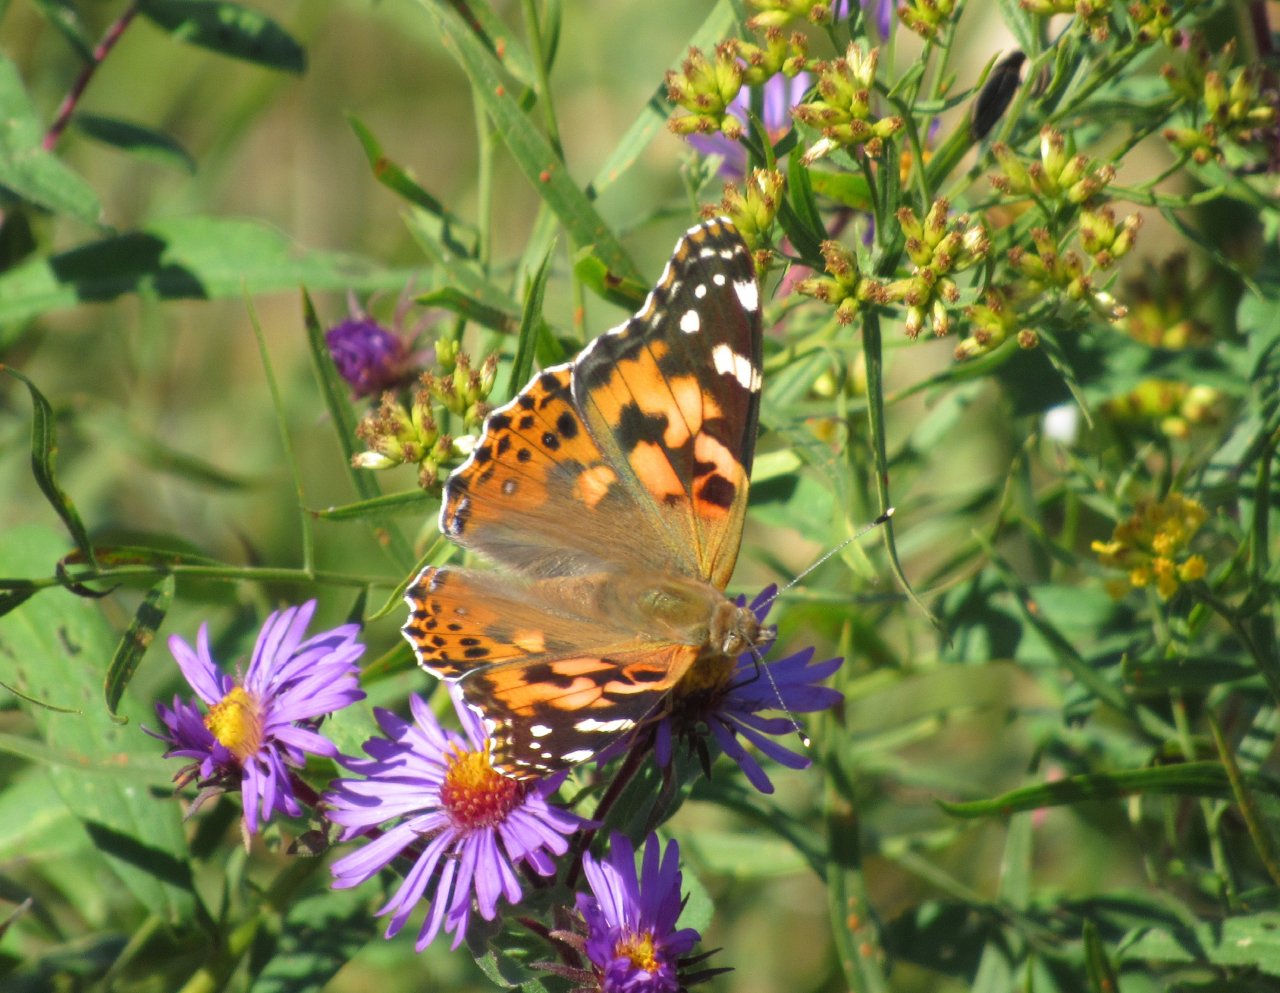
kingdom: Animalia
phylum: Arthropoda
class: Insecta
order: Lepidoptera
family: Nymphalidae
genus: Vanessa
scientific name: Vanessa cardui
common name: Painted Lady
